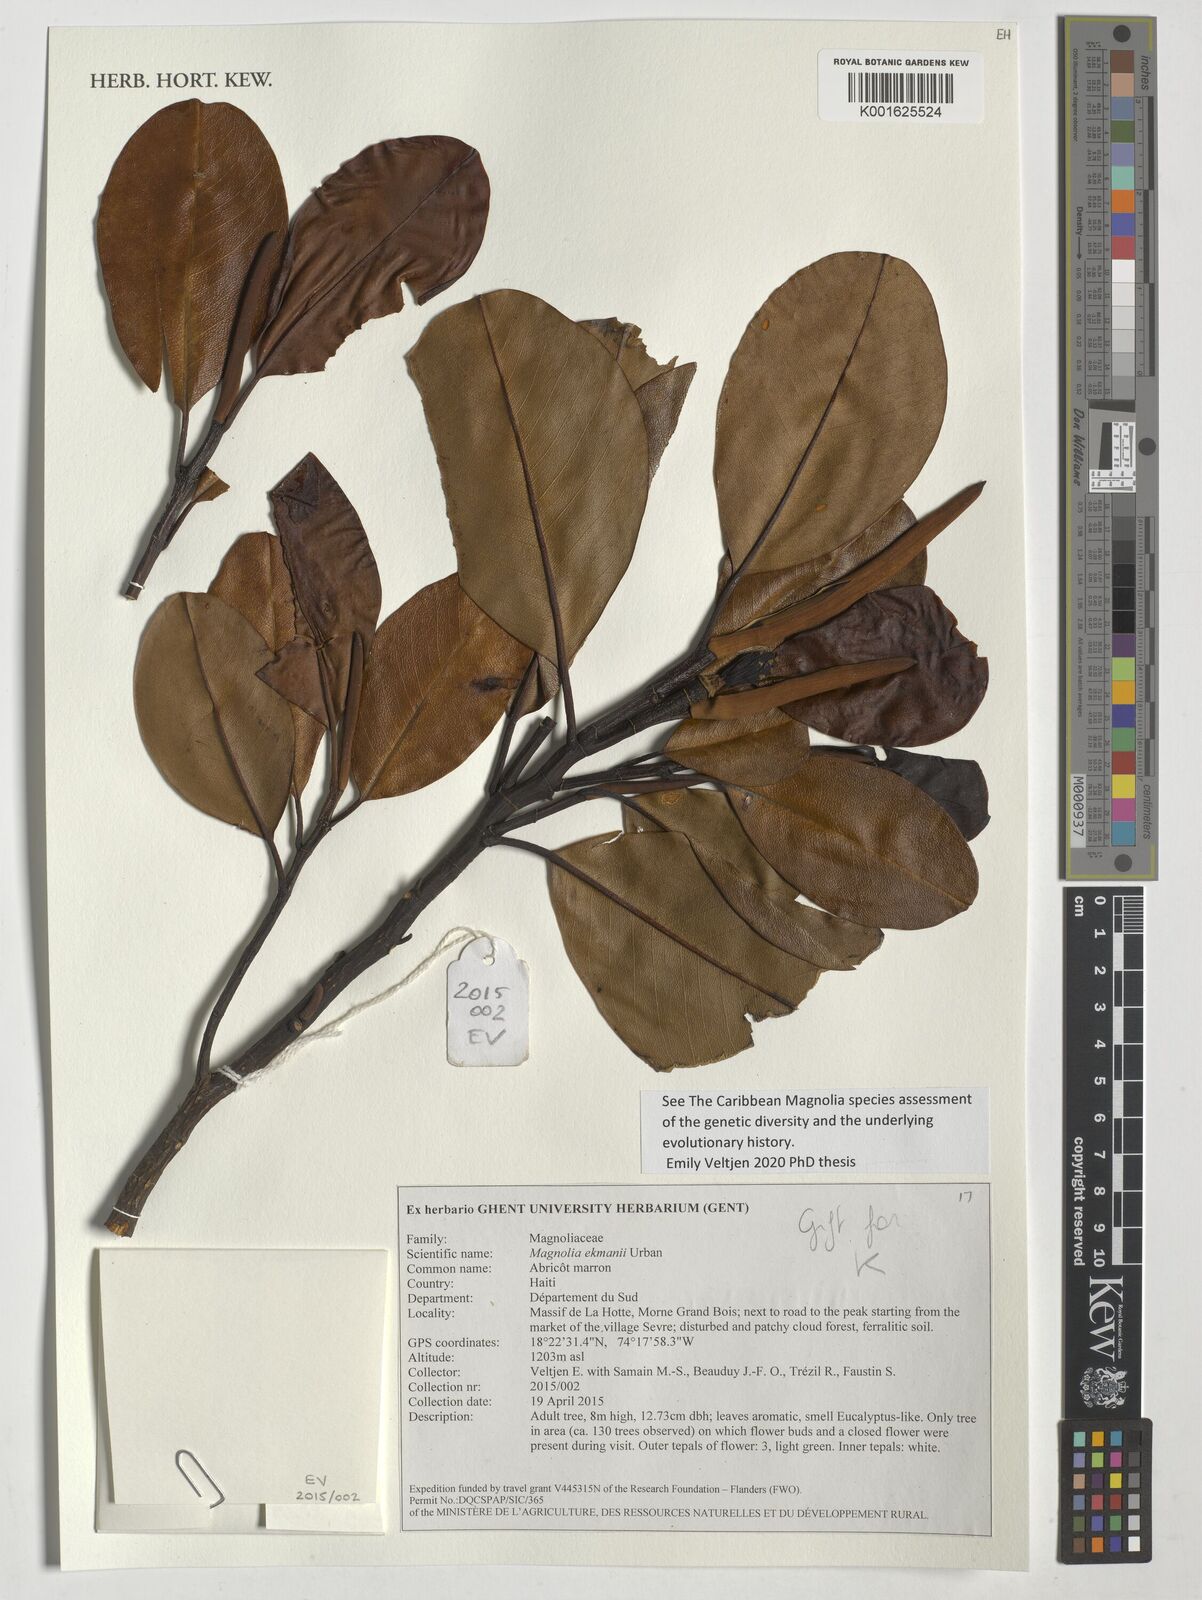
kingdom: Plantae
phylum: Tracheophyta
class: Magnoliopsida
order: Magnoliales
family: Magnoliaceae
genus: Magnolia
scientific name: Magnolia ekmanii
